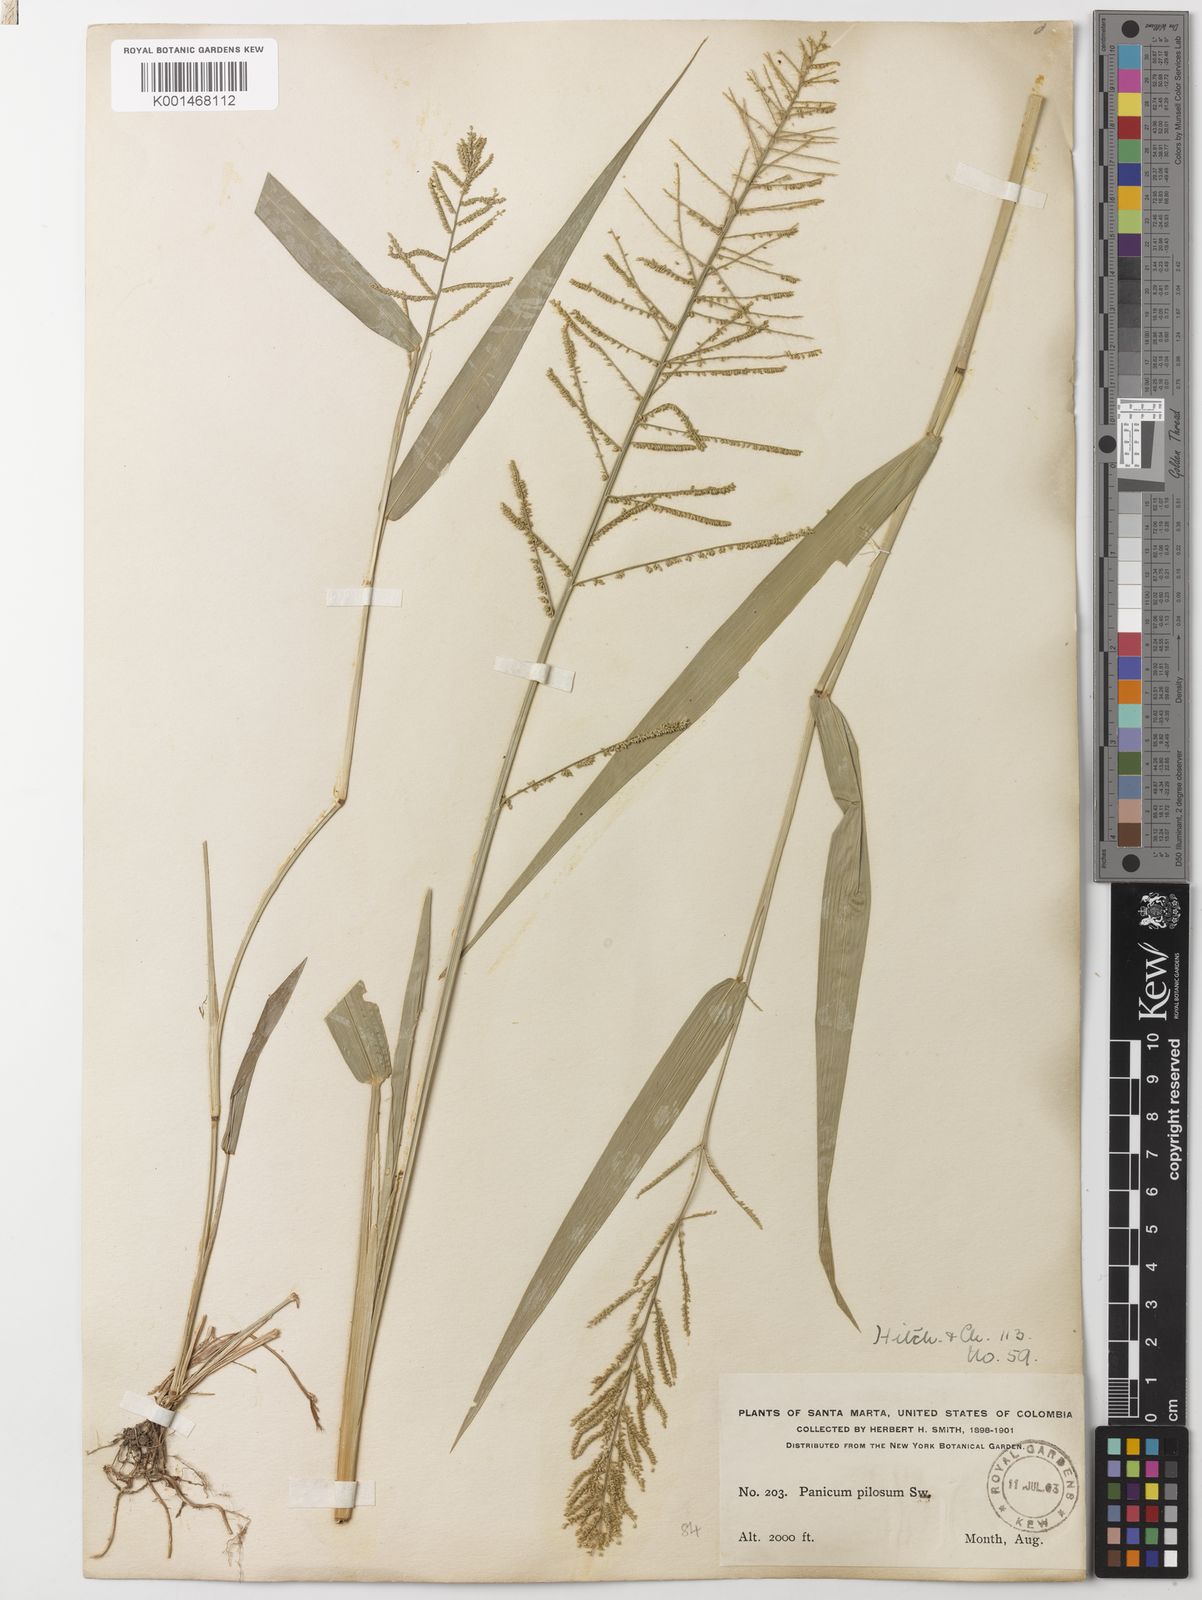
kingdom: Plantae
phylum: Tracheophyta
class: Liliopsida
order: Poales
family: Poaceae
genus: Rugoloa
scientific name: Rugoloa pilosa
